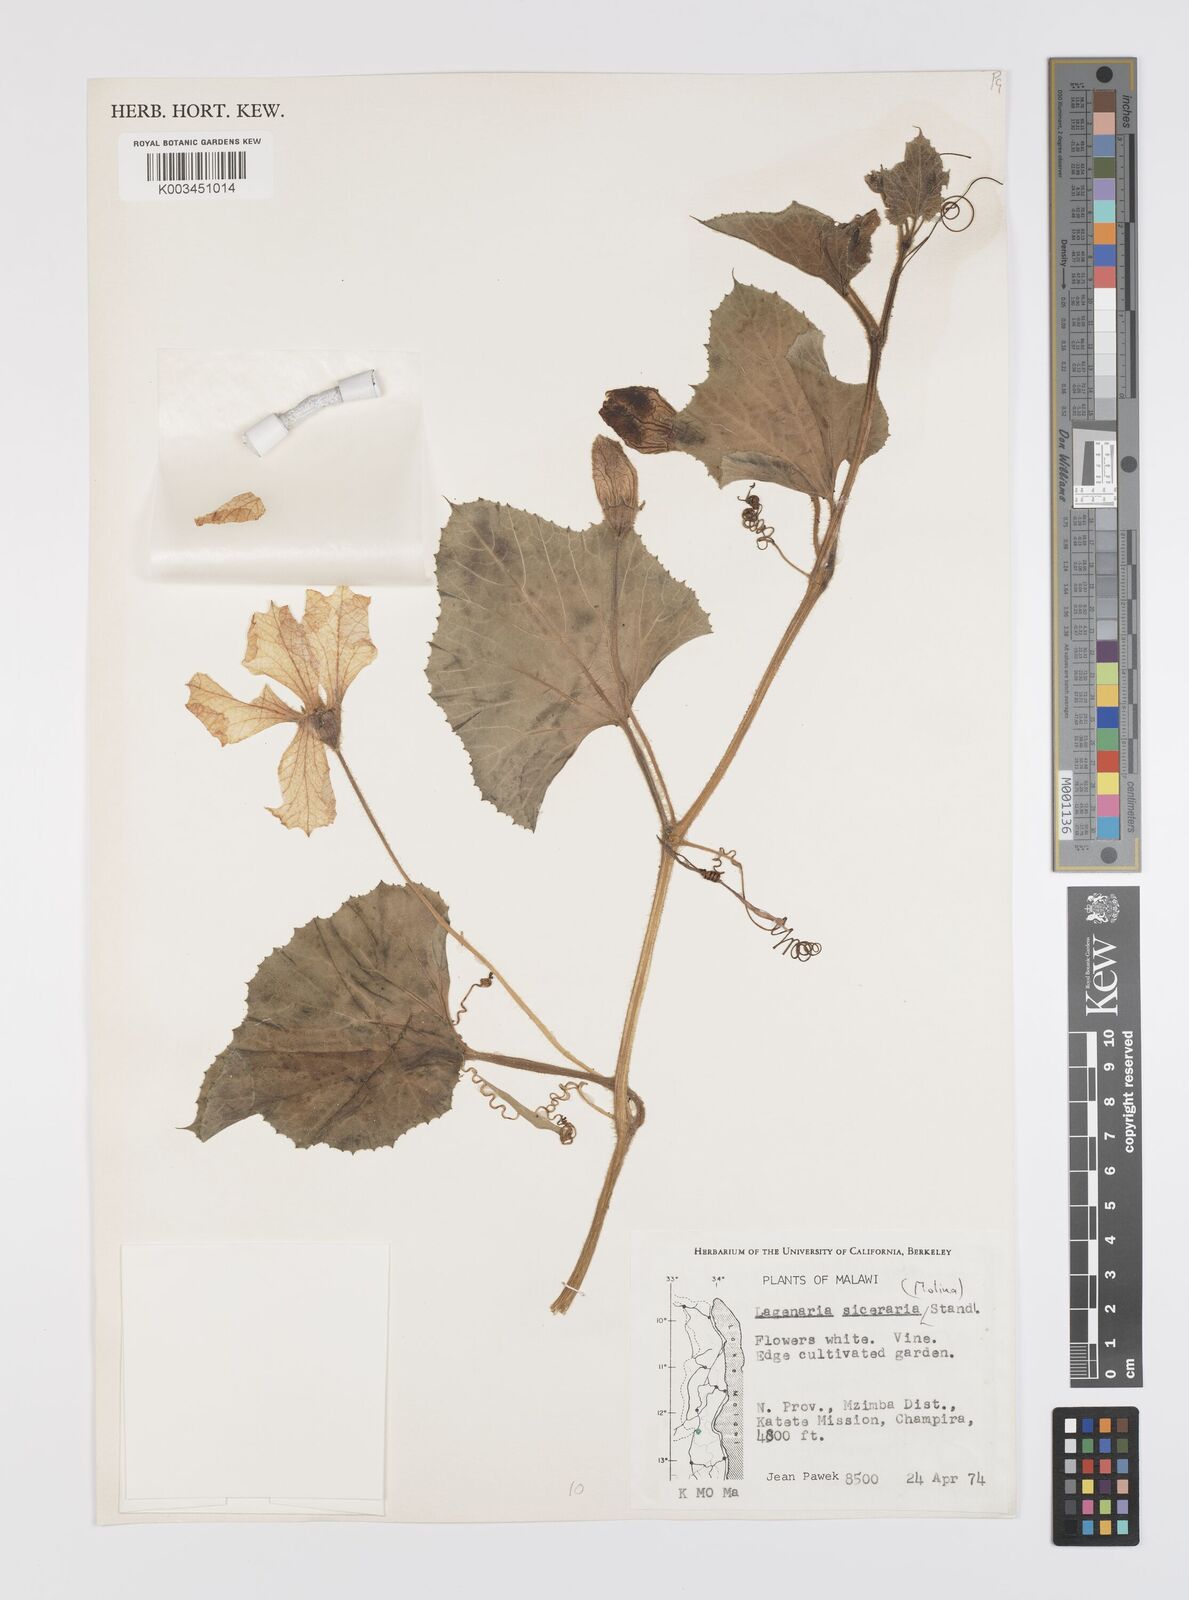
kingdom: Plantae
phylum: Tracheophyta
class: Magnoliopsida
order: Cucurbitales
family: Cucurbitaceae
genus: Lagenaria
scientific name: Lagenaria siceraria
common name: Bottle gourd
